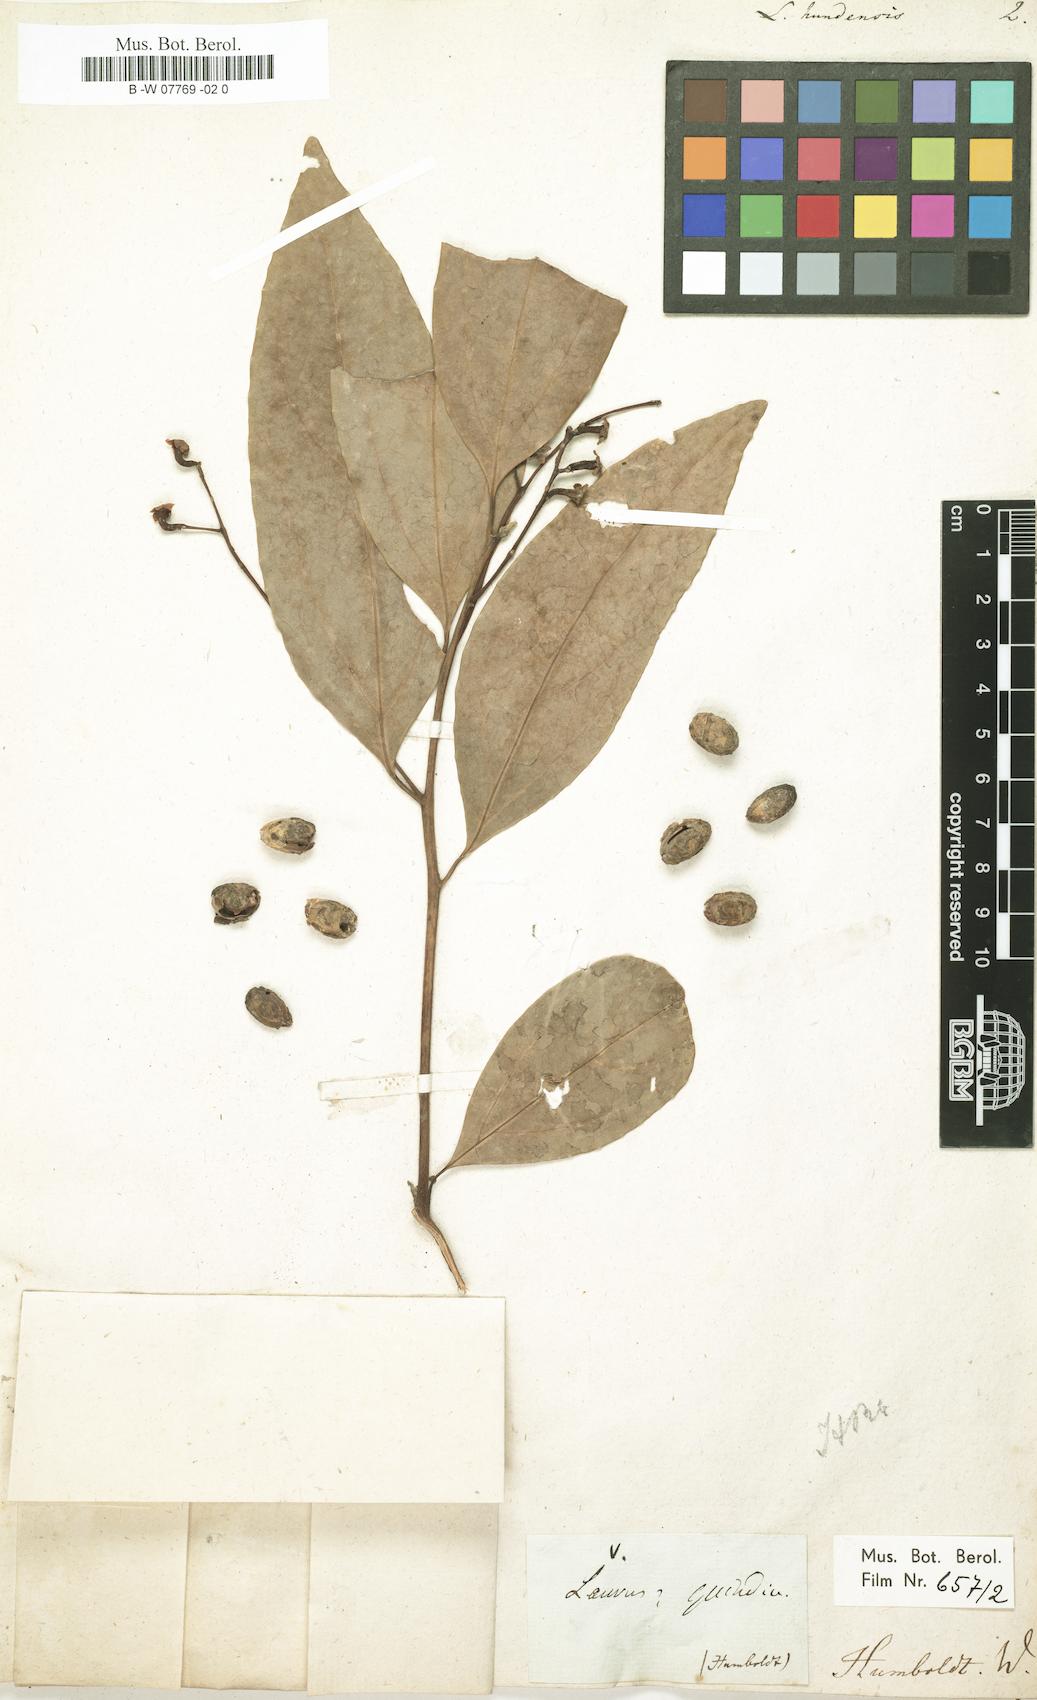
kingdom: Plantae
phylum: Tracheophyta
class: Magnoliopsida
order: Laurales
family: Lauraceae
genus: Aiouea
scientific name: Aiouea montana
